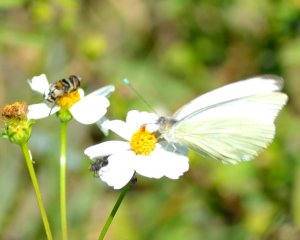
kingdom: Animalia
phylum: Arthropoda
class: Insecta
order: Lepidoptera
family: Pieridae
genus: Ascia
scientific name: Ascia monuste
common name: Great Southern White
